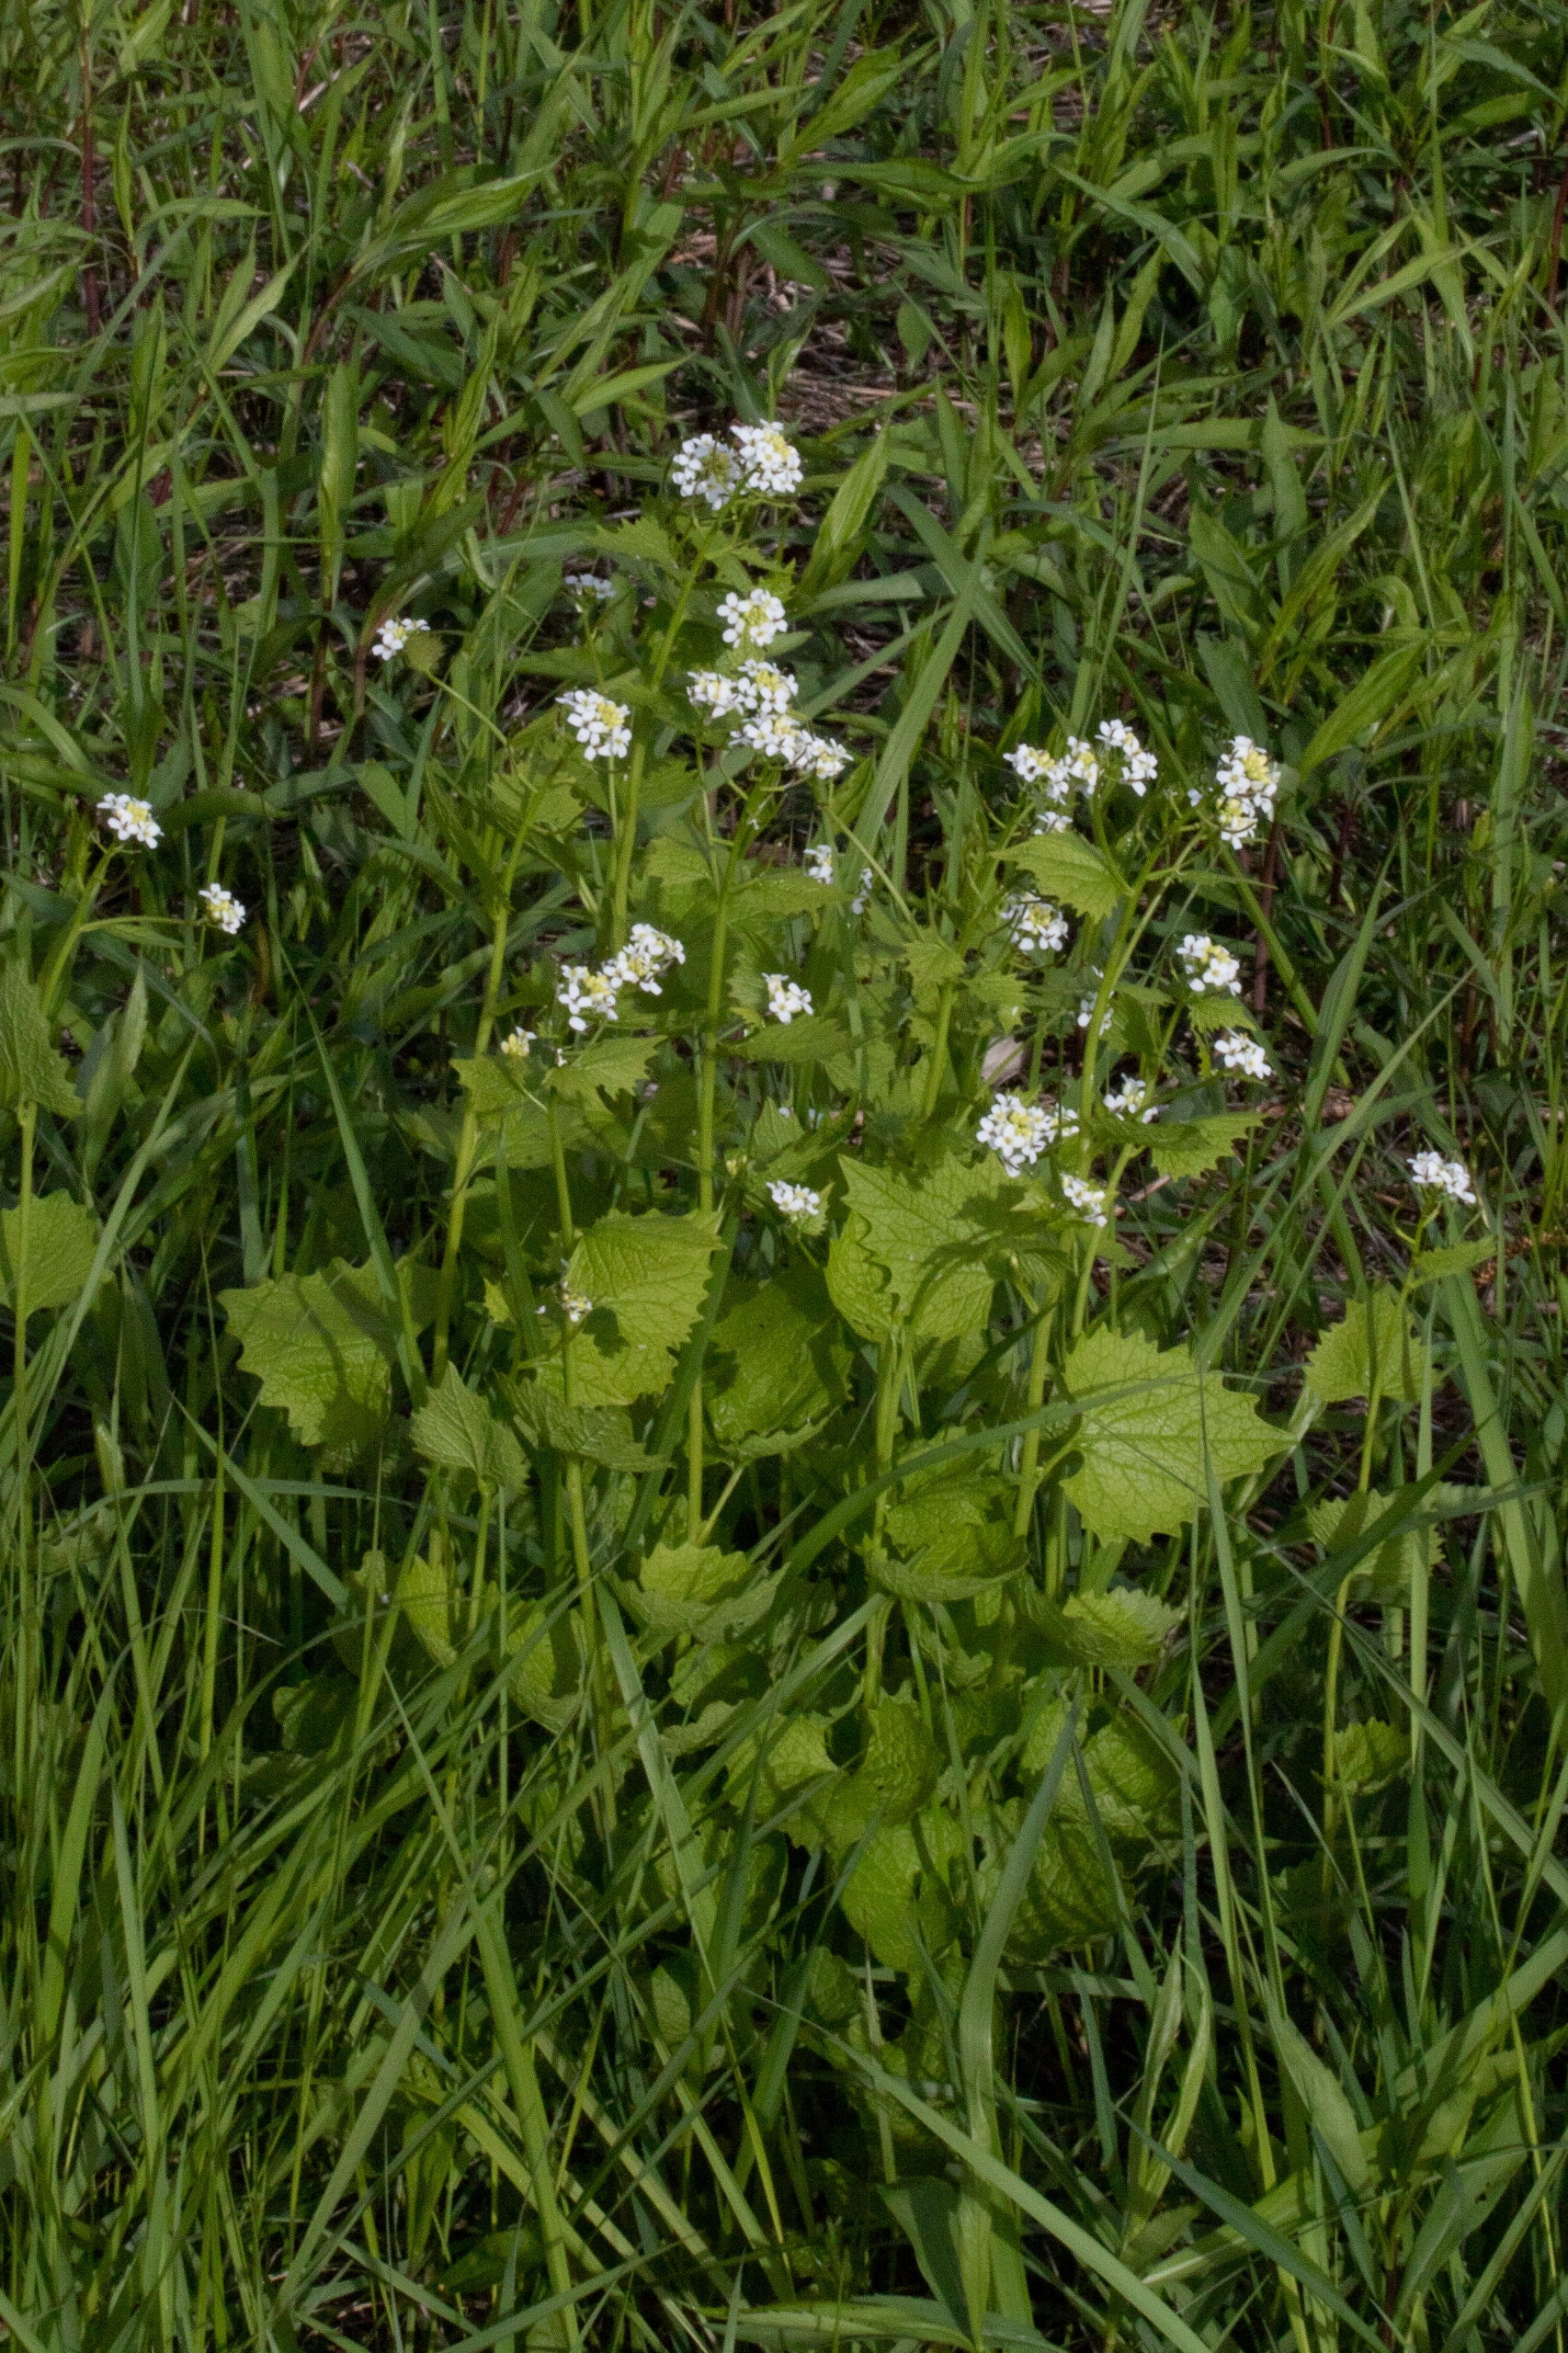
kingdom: Plantae
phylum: Tracheophyta
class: Magnoliopsida
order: Brassicales
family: Brassicaceae
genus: Alliaria
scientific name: Alliaria petiolata
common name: Løgkarse
